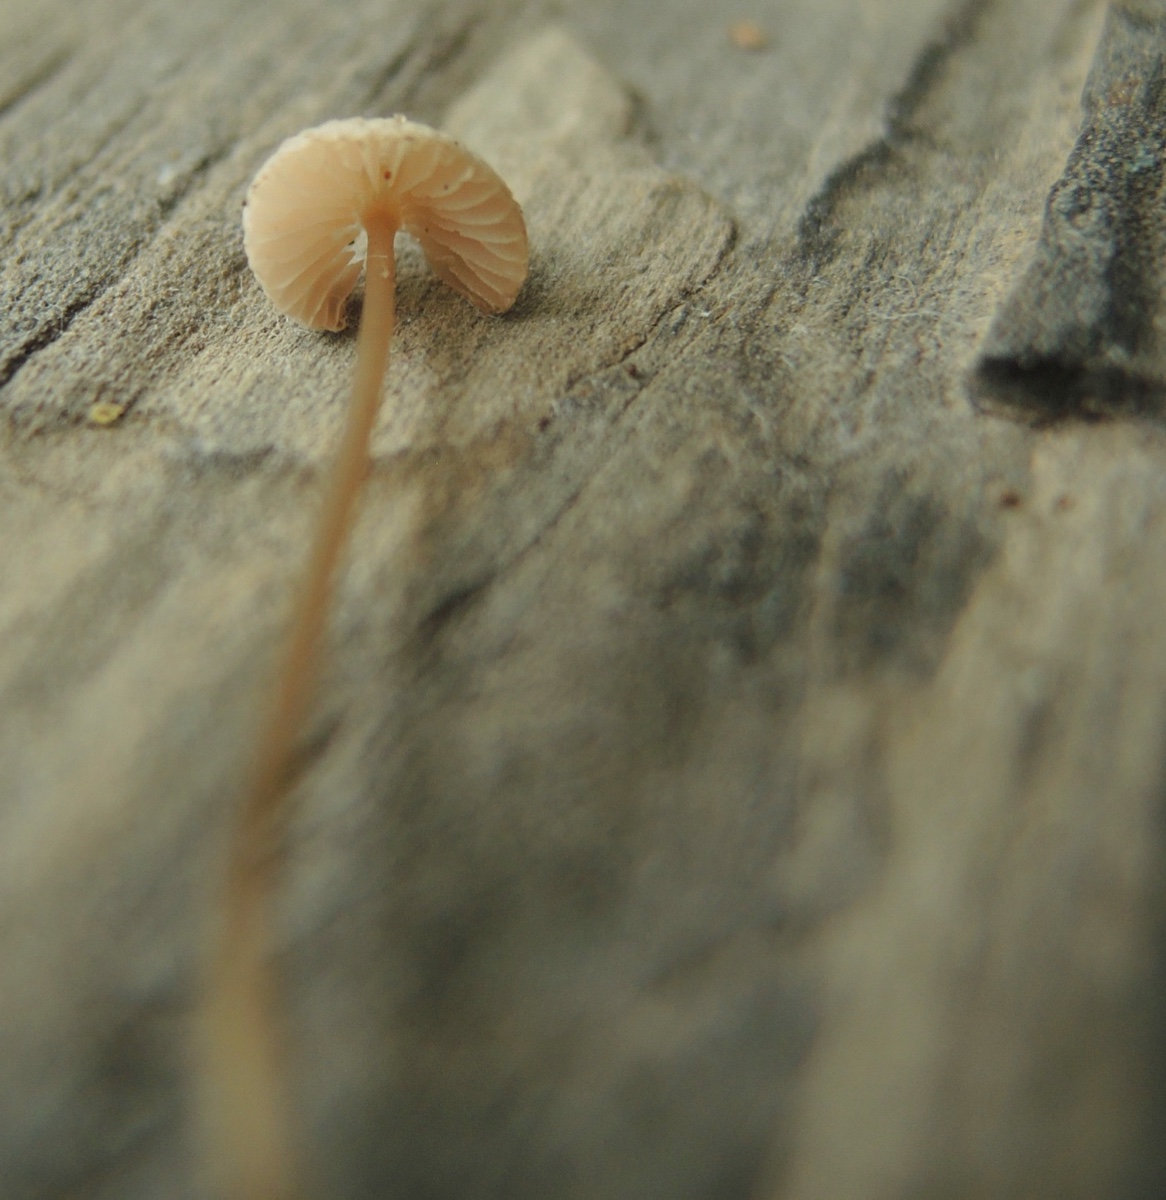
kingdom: Fungi
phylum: Basidiomycota
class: Agaricomycetes
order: Agaricales
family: Mycenaceae
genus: Mycena
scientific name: Mycena metata
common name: rødlig huesvamp
